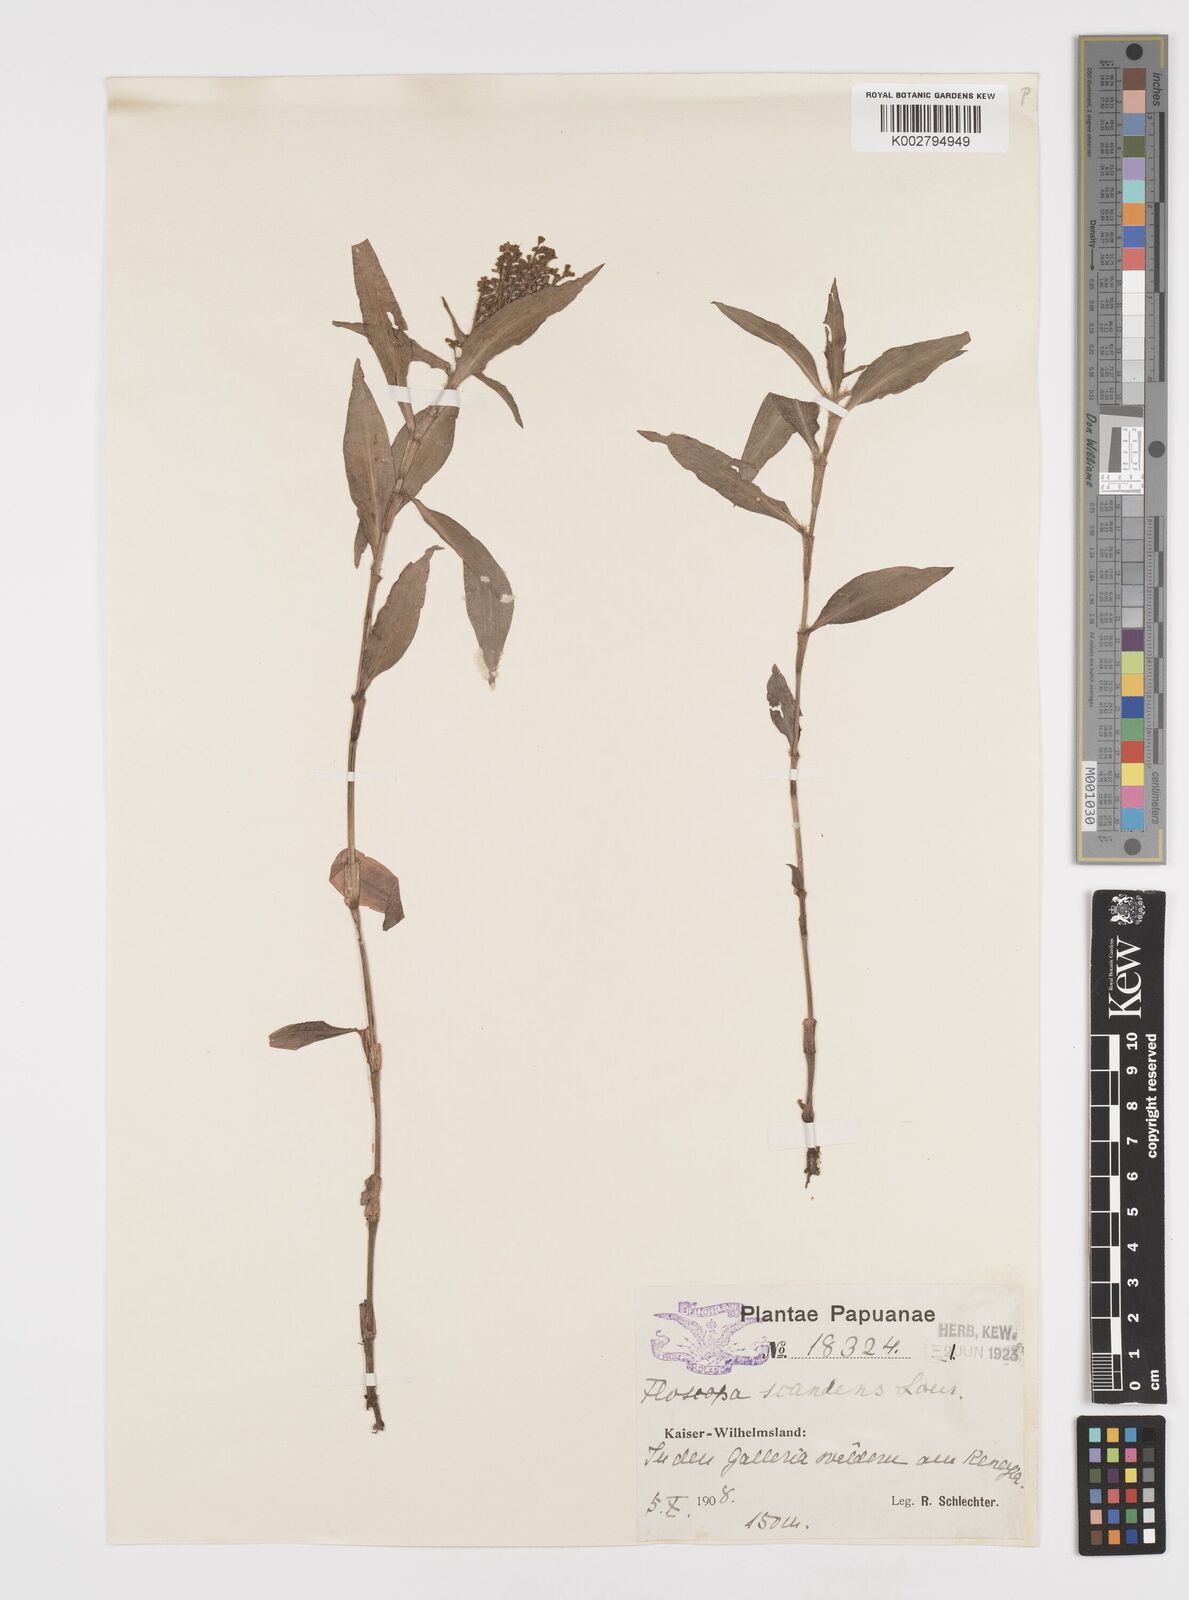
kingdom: Plantae
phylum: Tracheophyta
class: Liliopsida
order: Commelinales
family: Commelinaceae
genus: Floscopa
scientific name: Floscopa scandens
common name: Climbing flower cup
